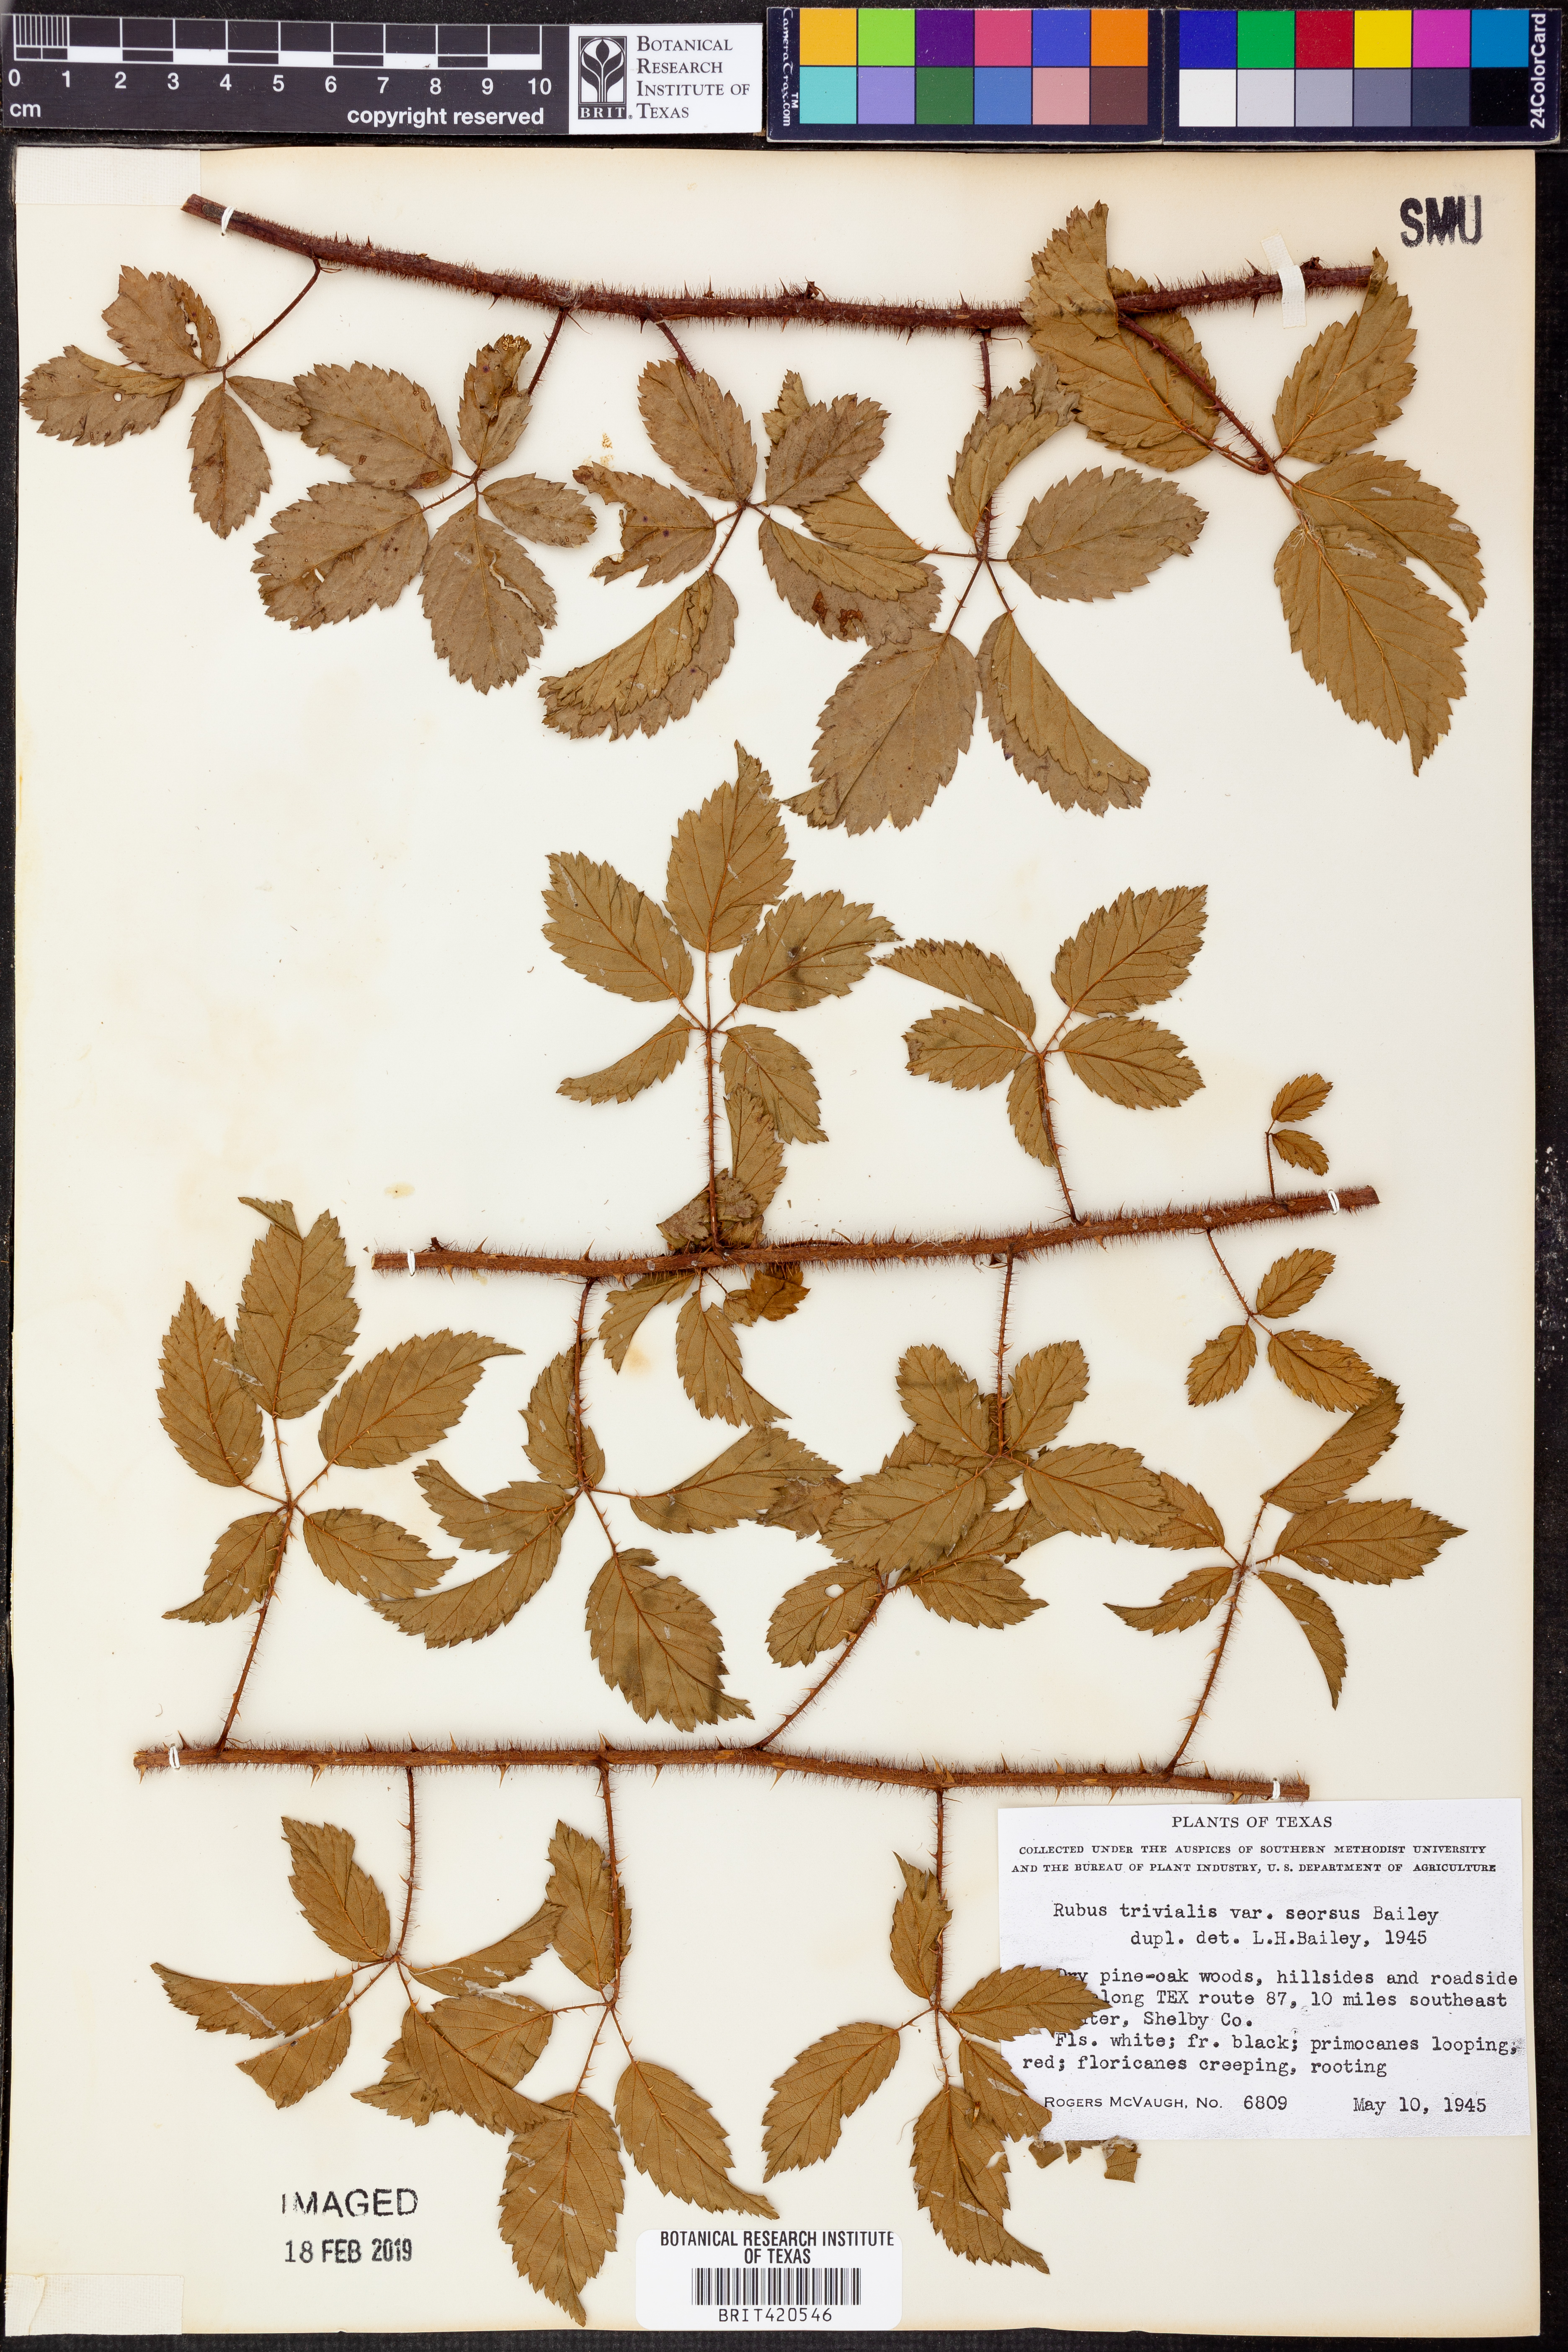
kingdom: Plantae
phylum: Tracheophyta
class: Magnoliopsida
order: Rosales
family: Rosaceae
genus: Rubus
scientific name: Rubus trivialis
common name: Southern dewberry
